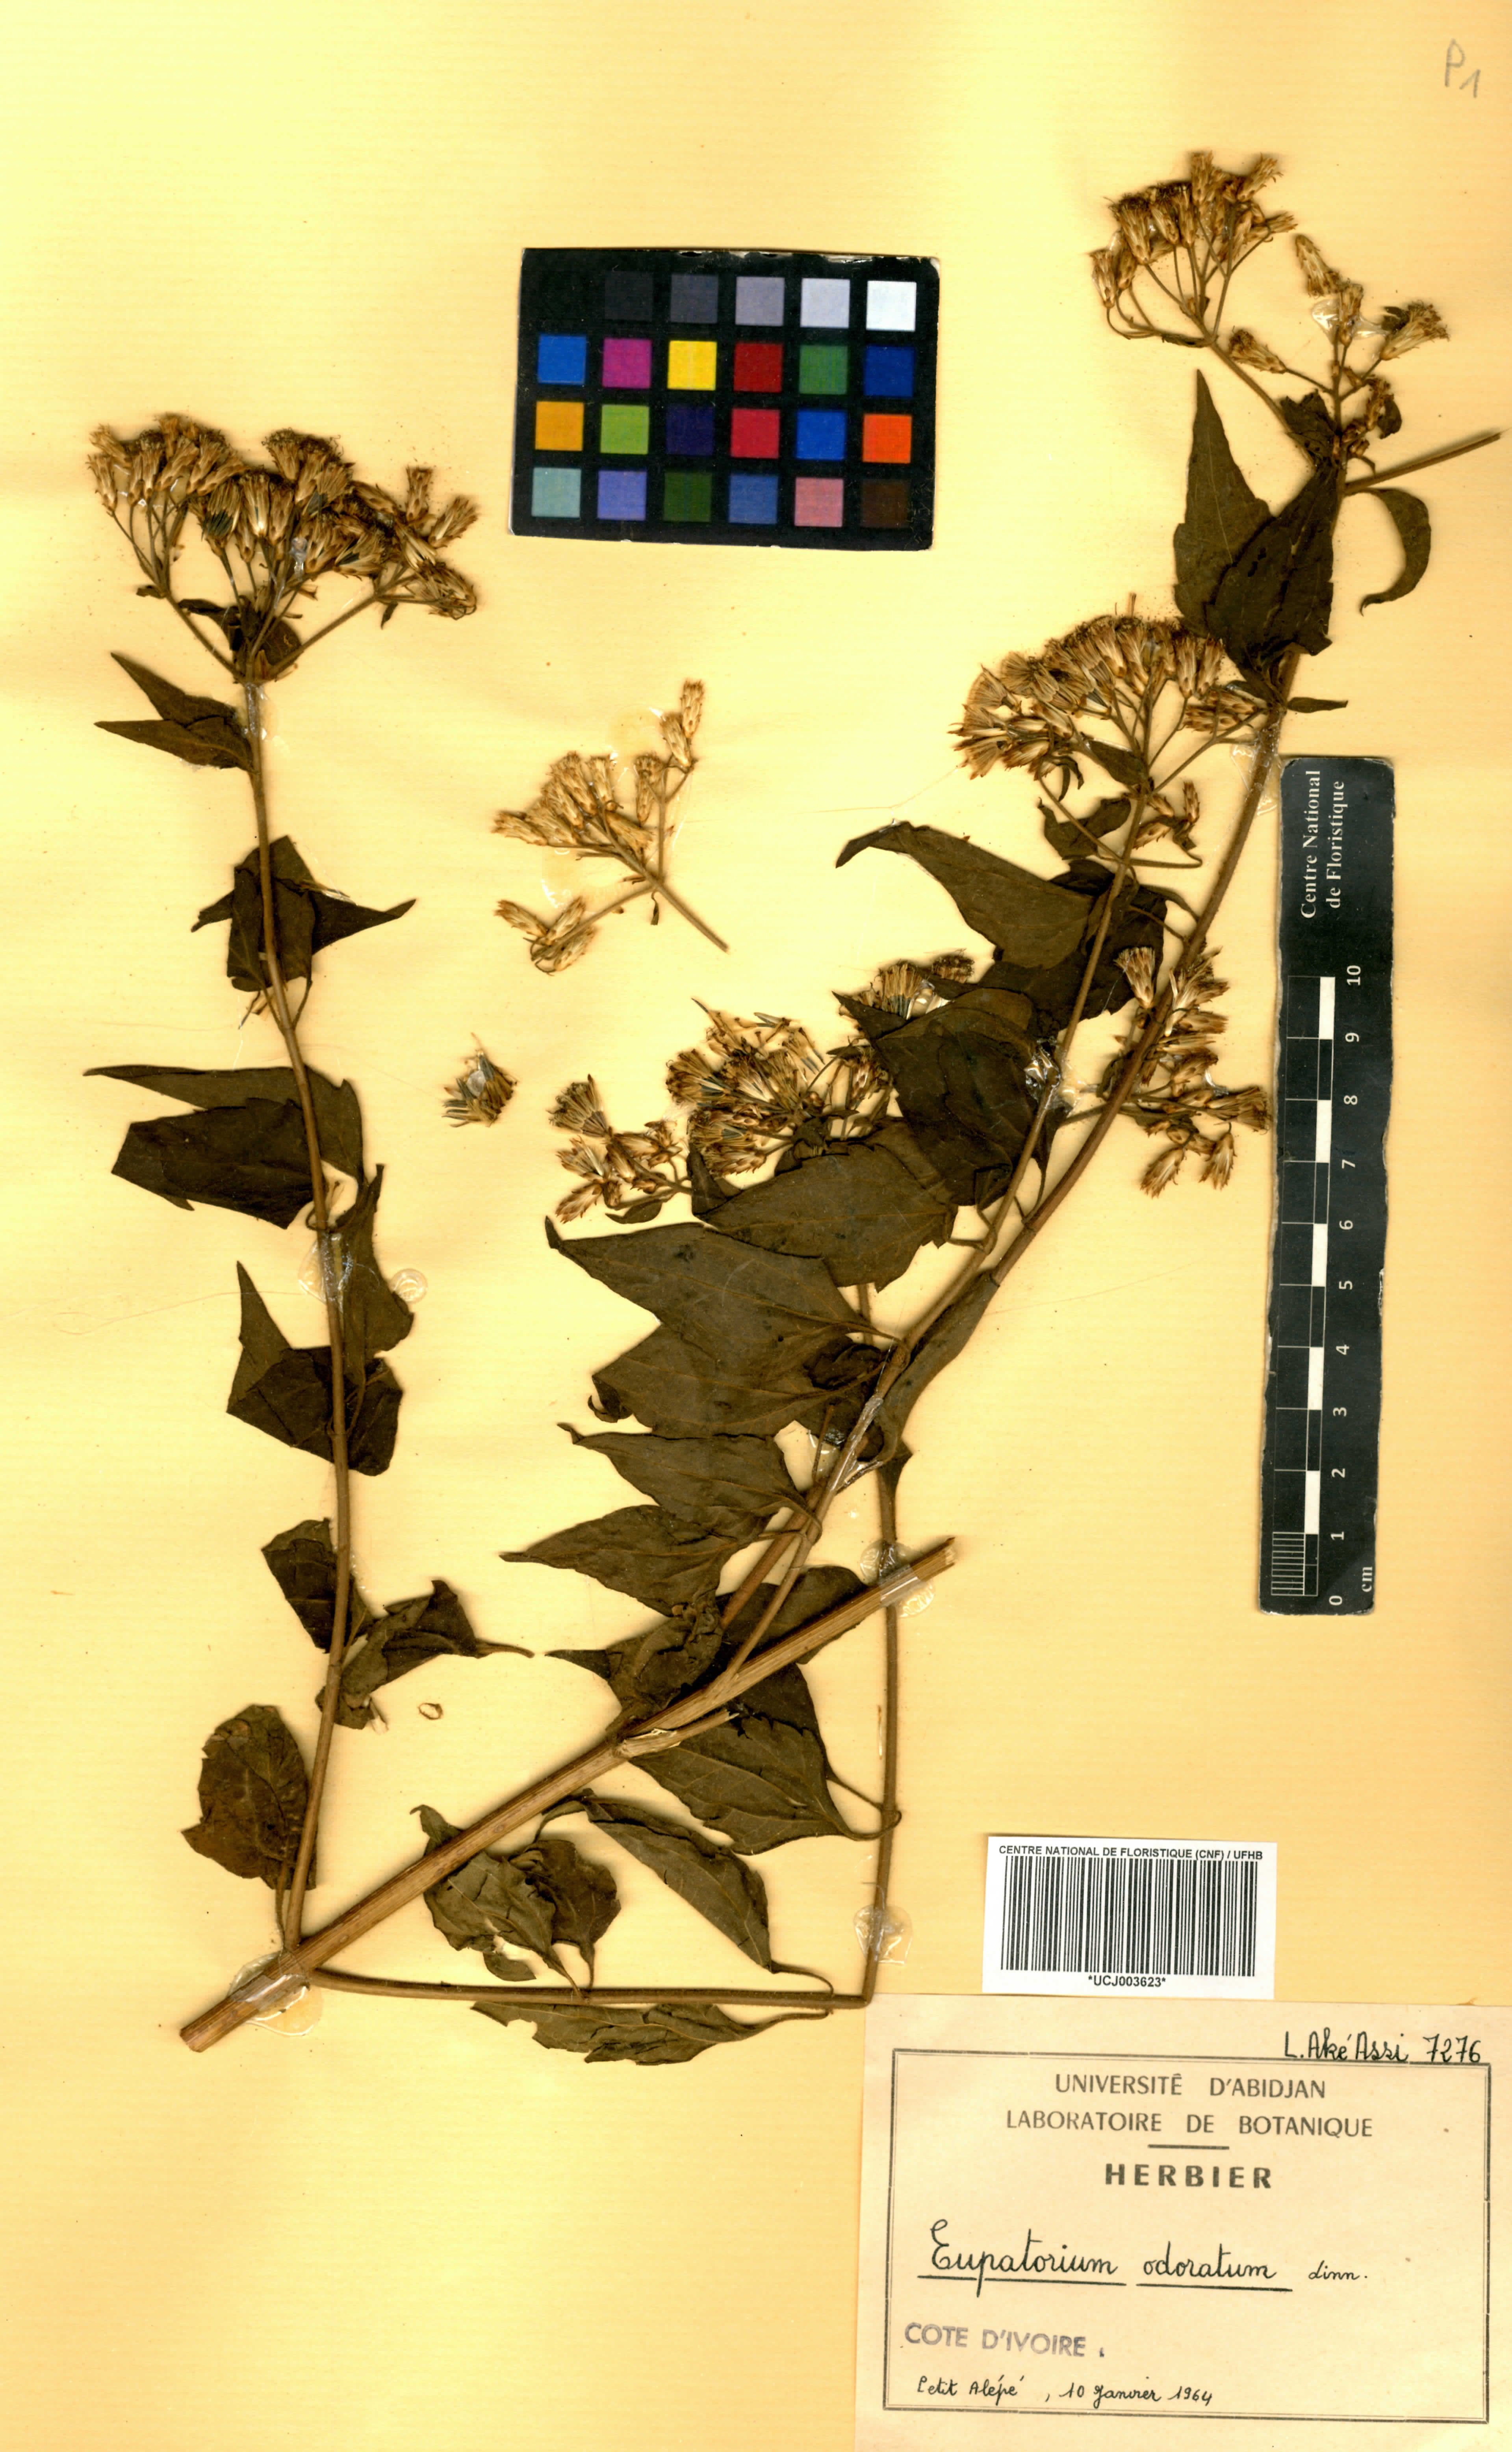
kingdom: Plantae
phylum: Tracheophyta
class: Magnoliopsida
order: Asterales
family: Asteraceae
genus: Chromolaena
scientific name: Chromolaena odorata
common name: Siamweed
